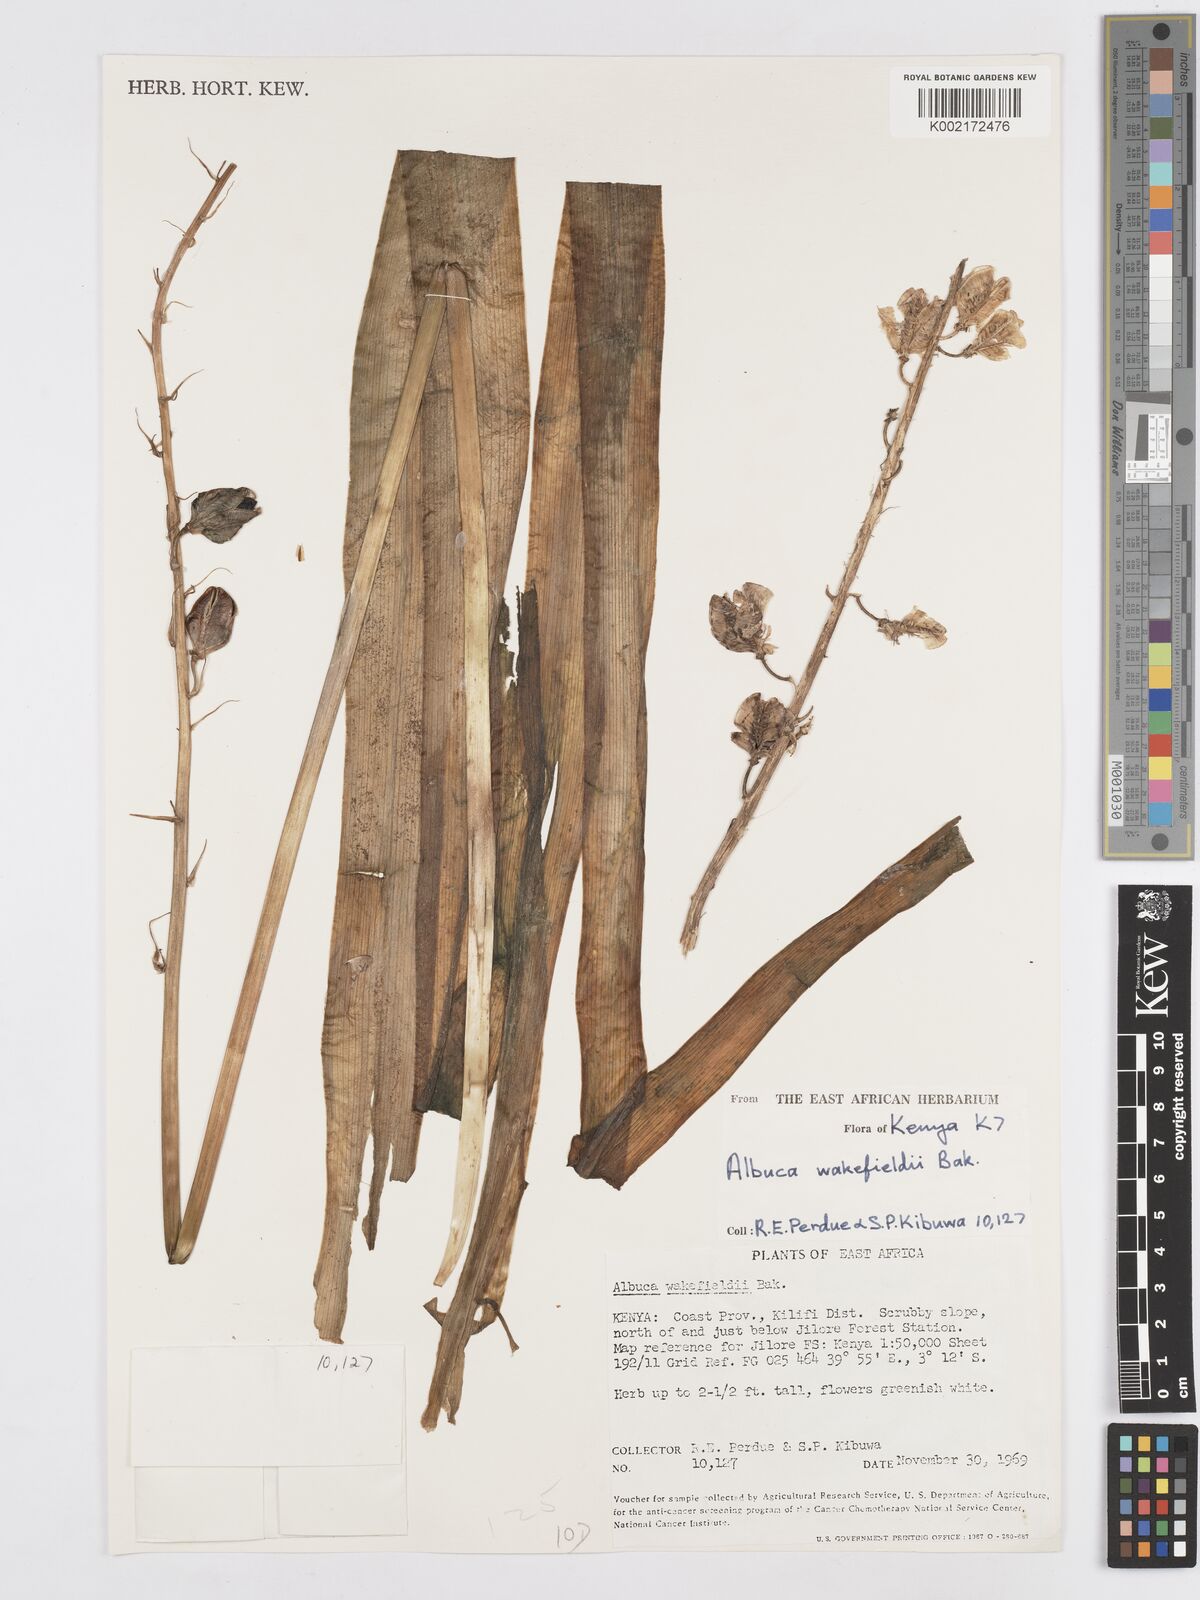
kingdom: Plantae
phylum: Tracheophyta
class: Liliopsida
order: Asparagales
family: Asparagaceae
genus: Albuca
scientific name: Albuca abyssinica
